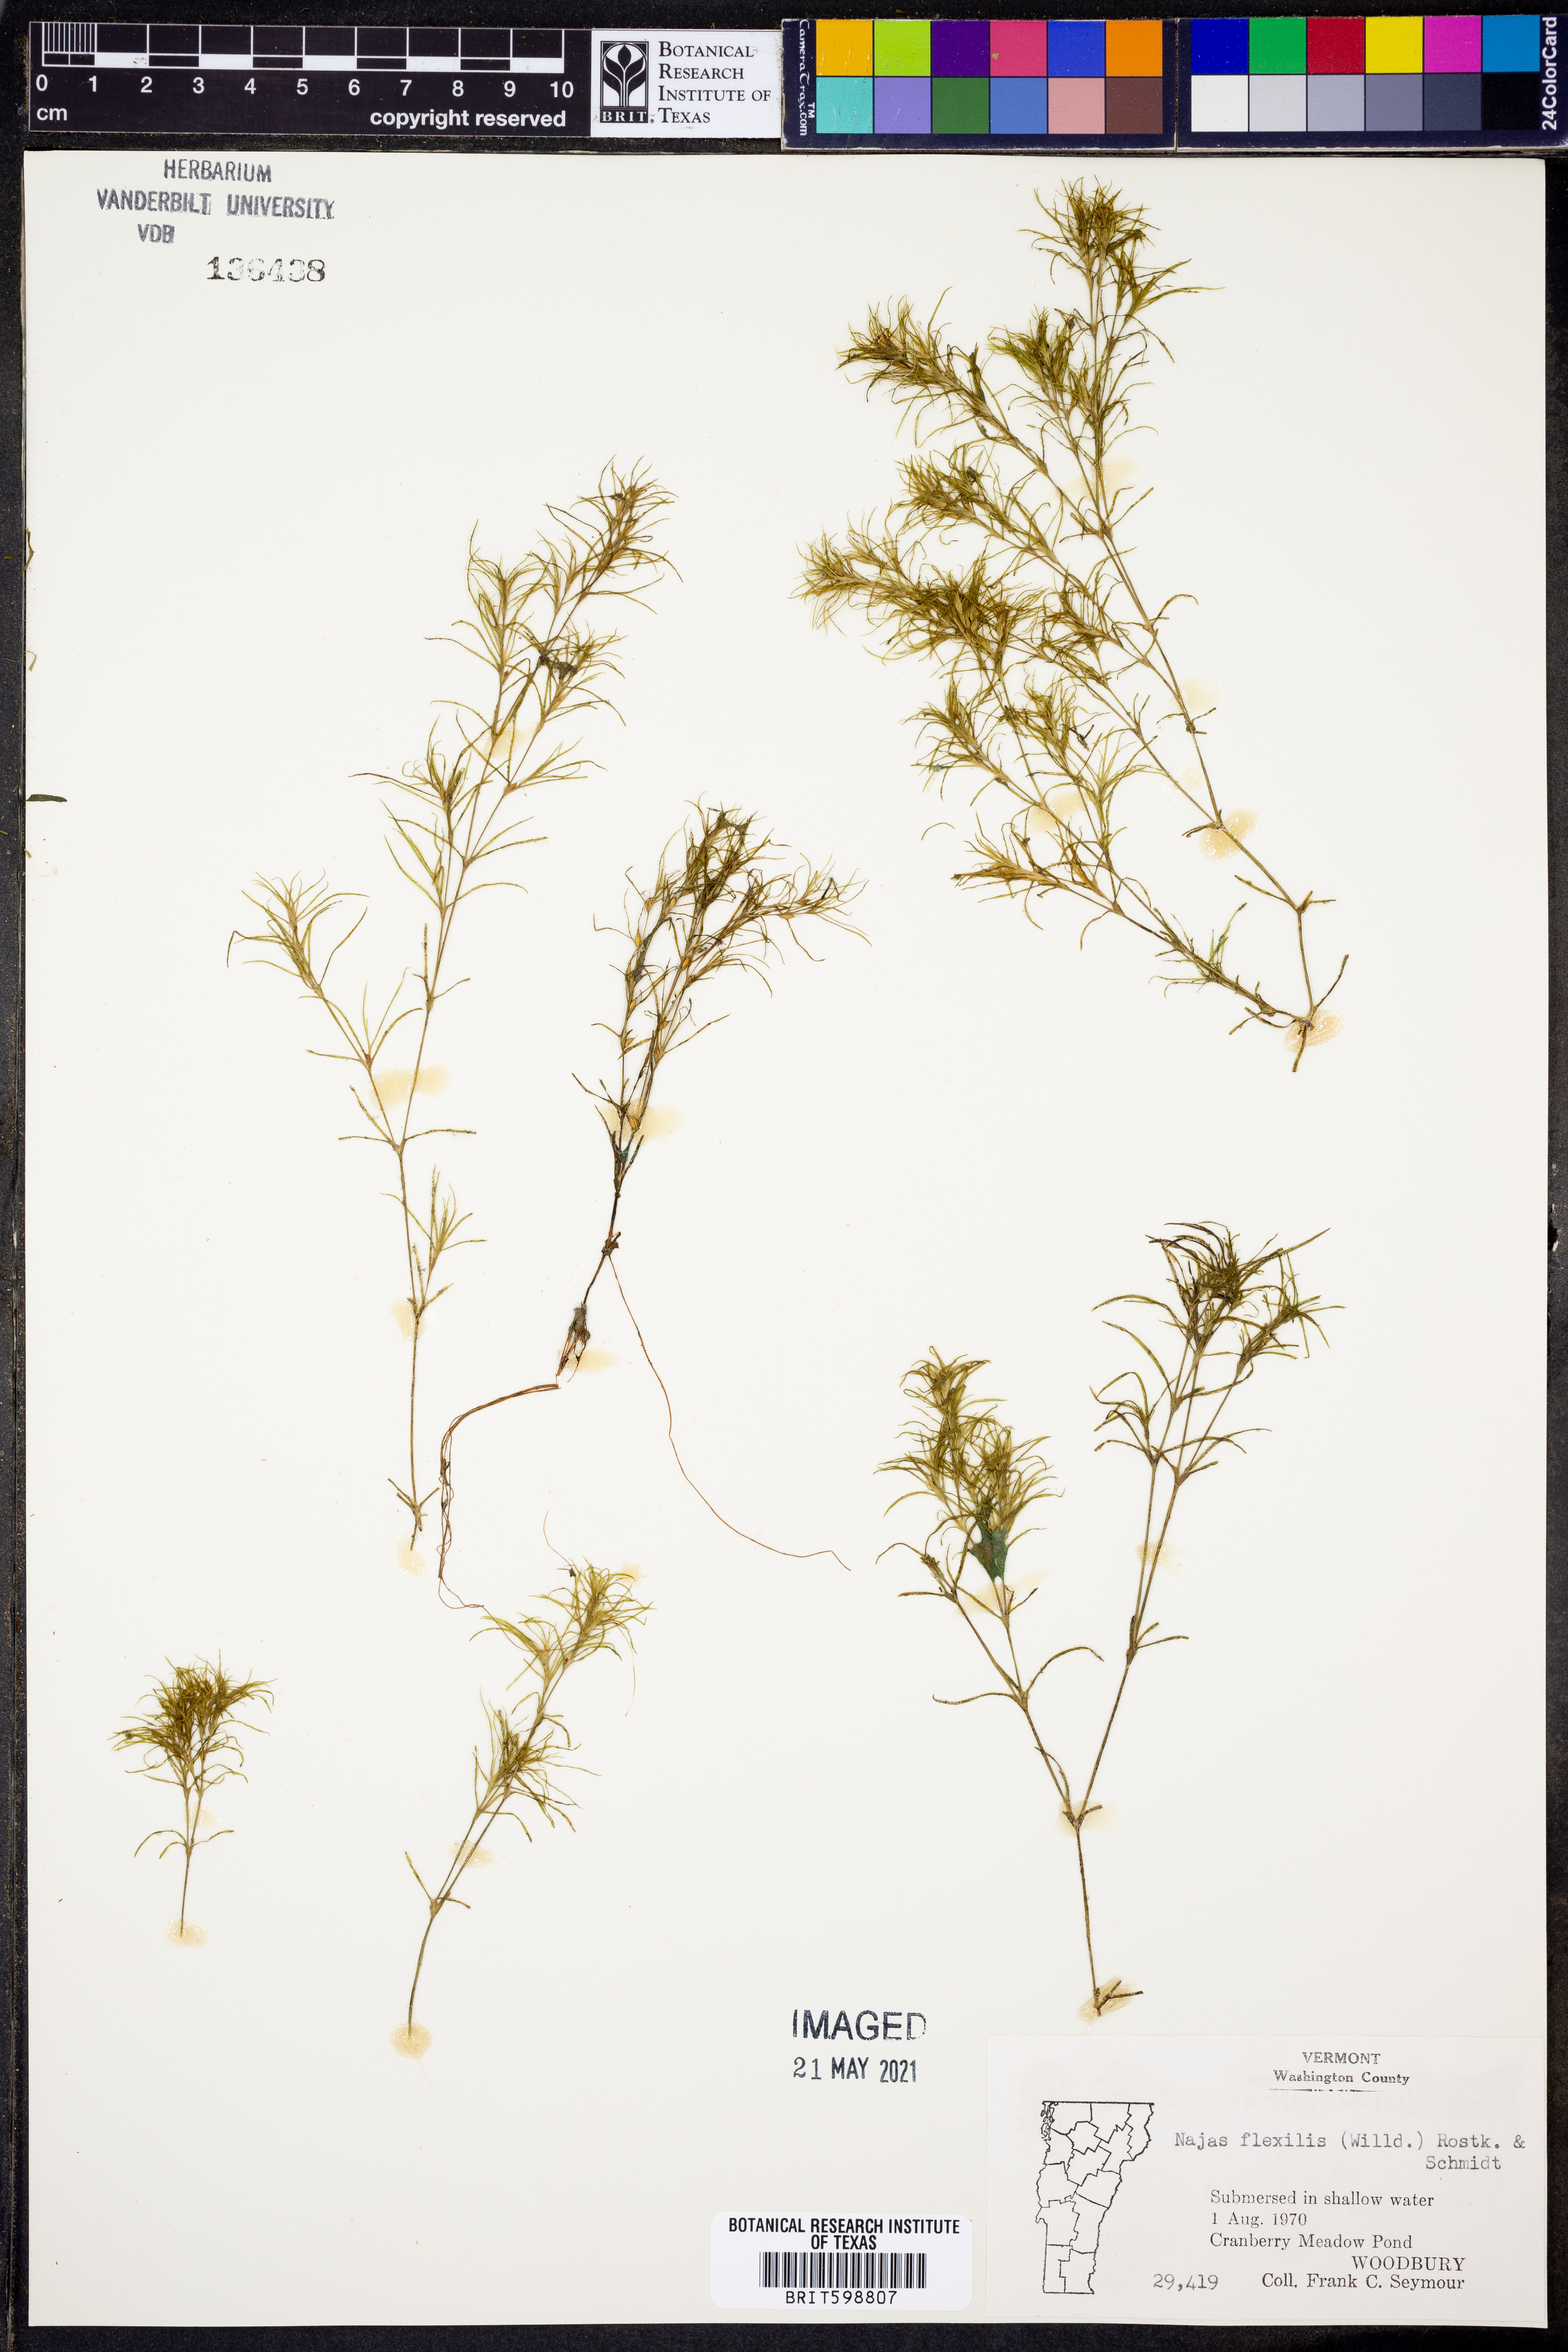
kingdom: Plantae
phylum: Tracheophyta
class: Liliopsida
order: Alismatales
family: Hydrocharitaceae
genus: Najas
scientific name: Najas flexilis
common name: Slender naiad
